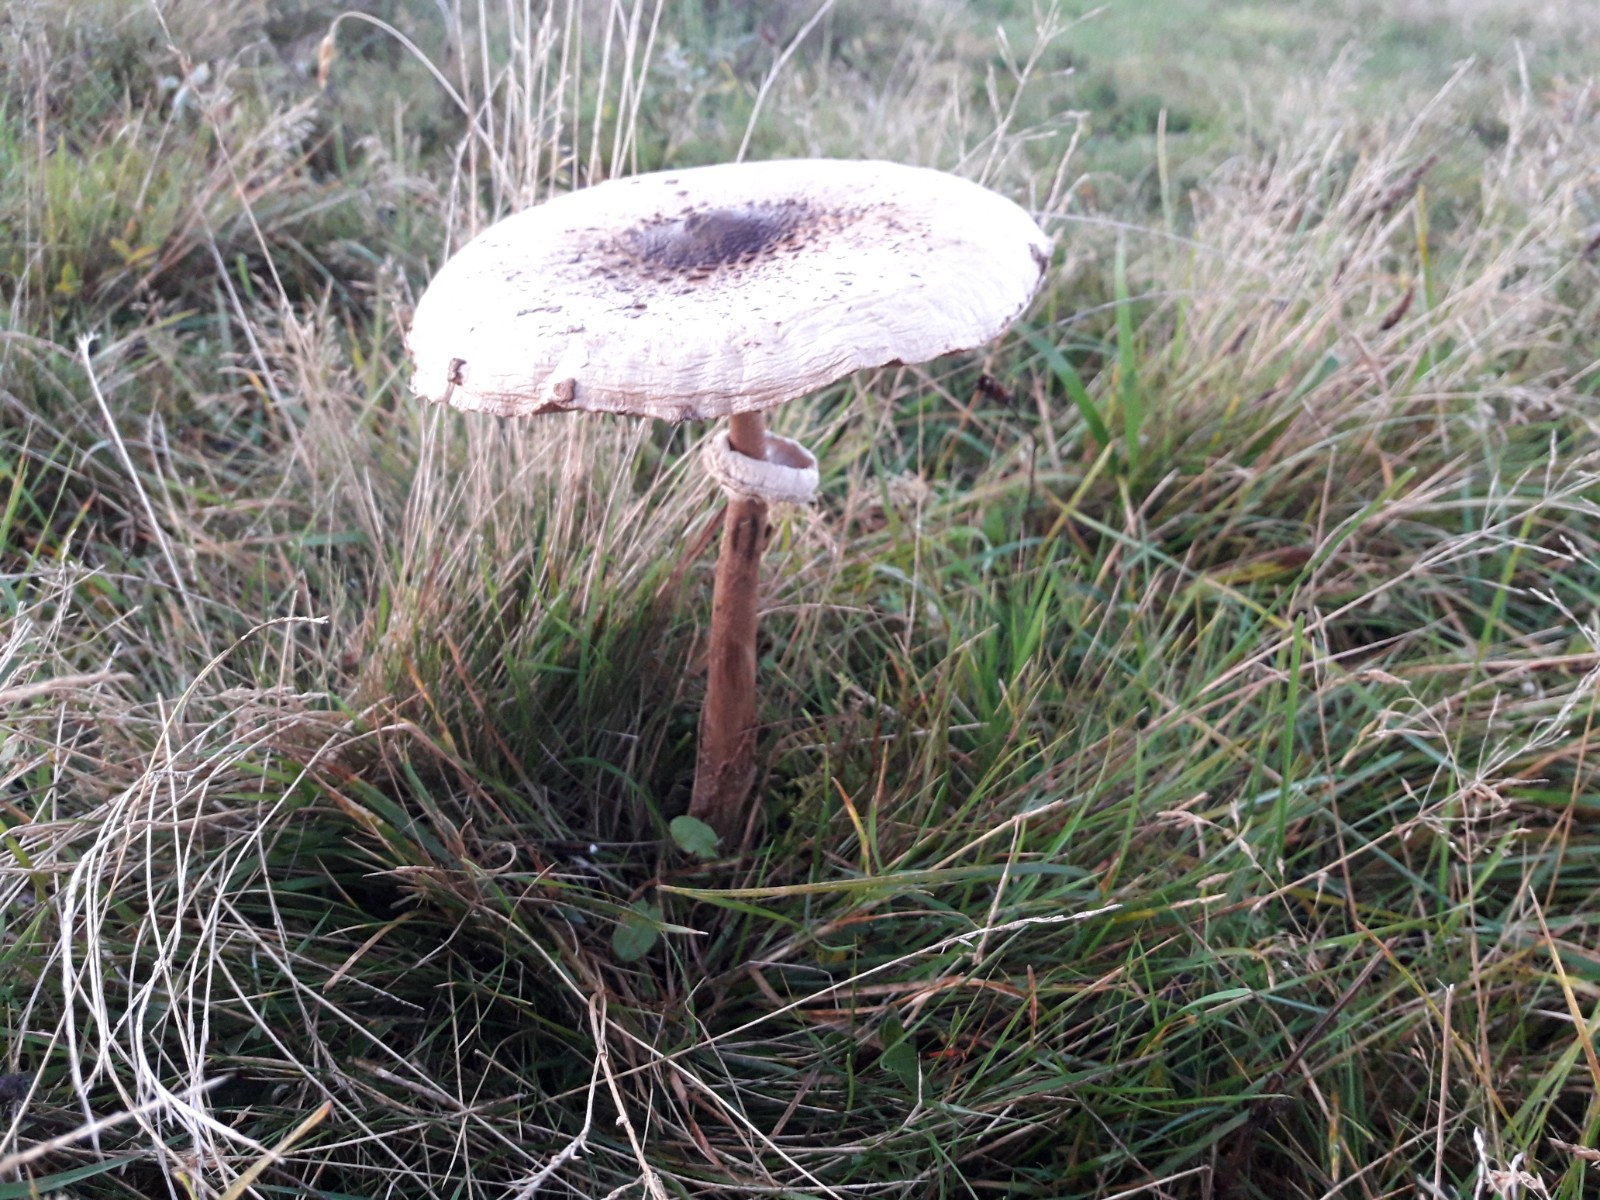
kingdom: Fungi
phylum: Basidiomycota
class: Agaricomycetes
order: Agaricales
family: Agaricaceae
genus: Macrolepiota
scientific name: Macrolepiota procera
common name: stor kæmpeparasolhat
